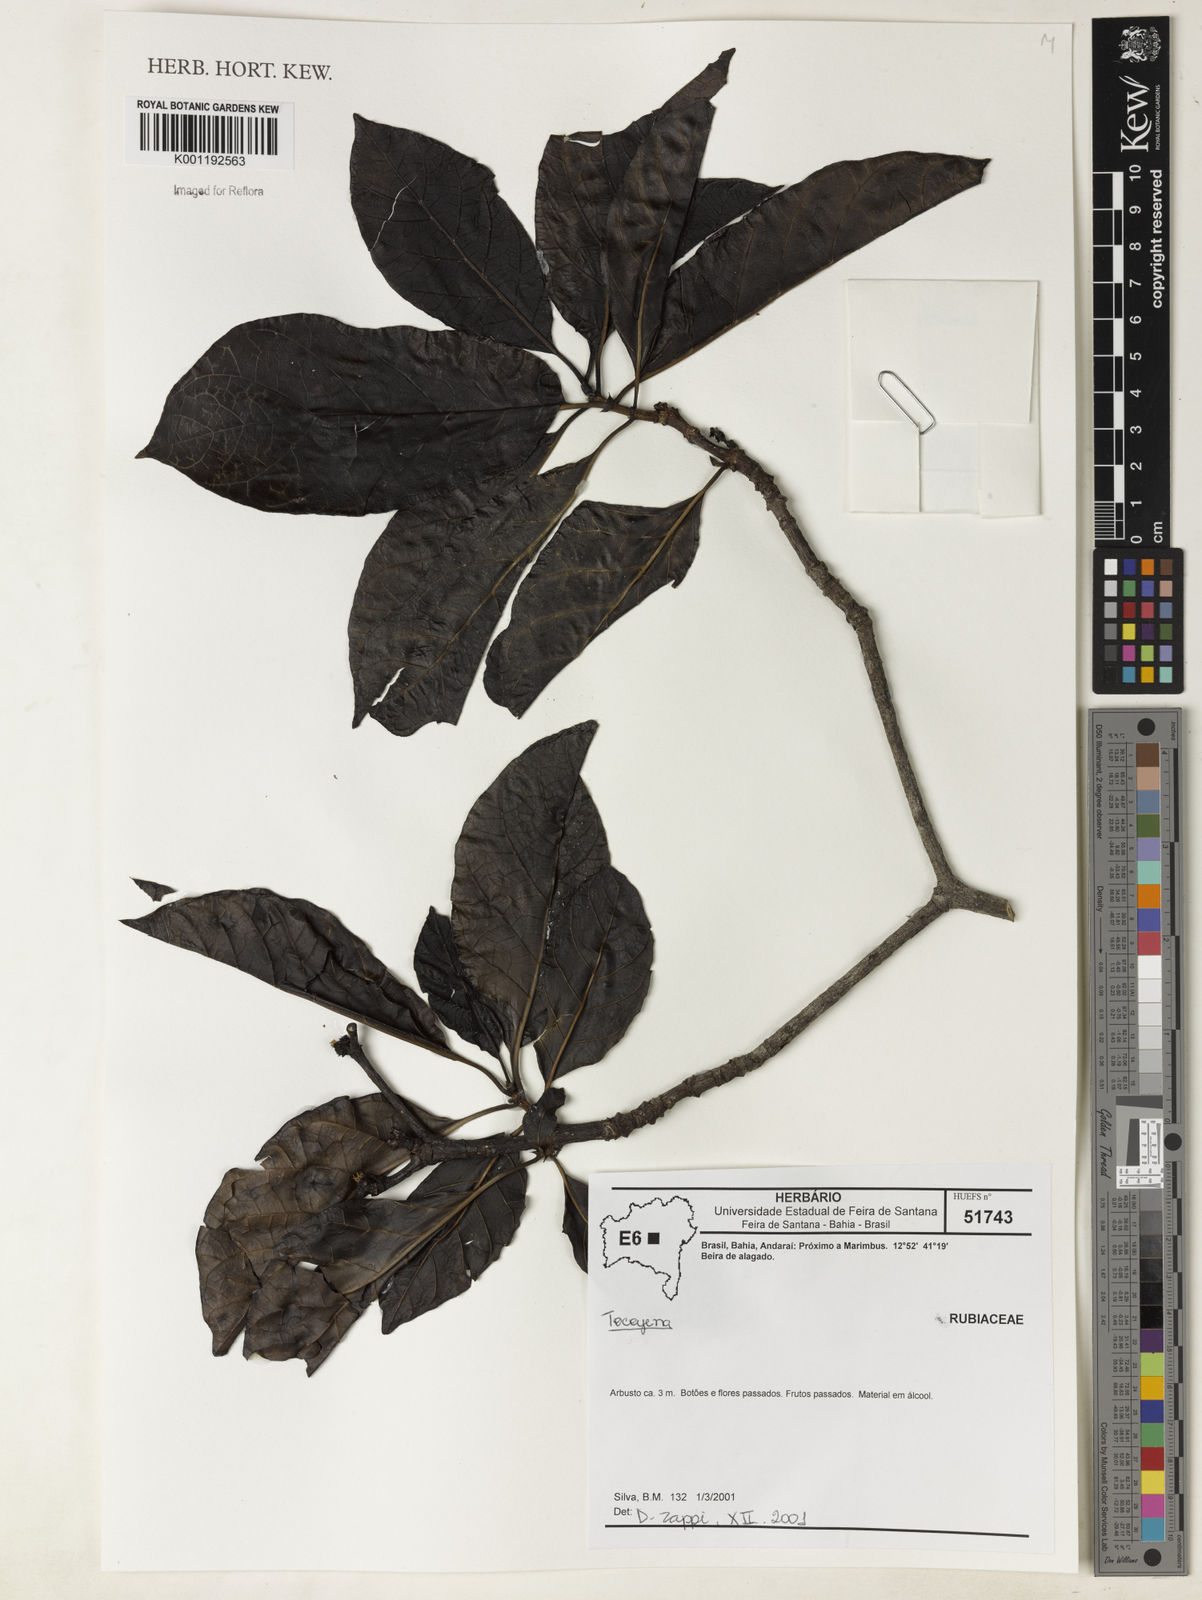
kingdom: Plantae
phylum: Tracheophyta
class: Magnoliopsida
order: Gentianales
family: Rubiaceae
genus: Tocoyena
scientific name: Tocoyena
